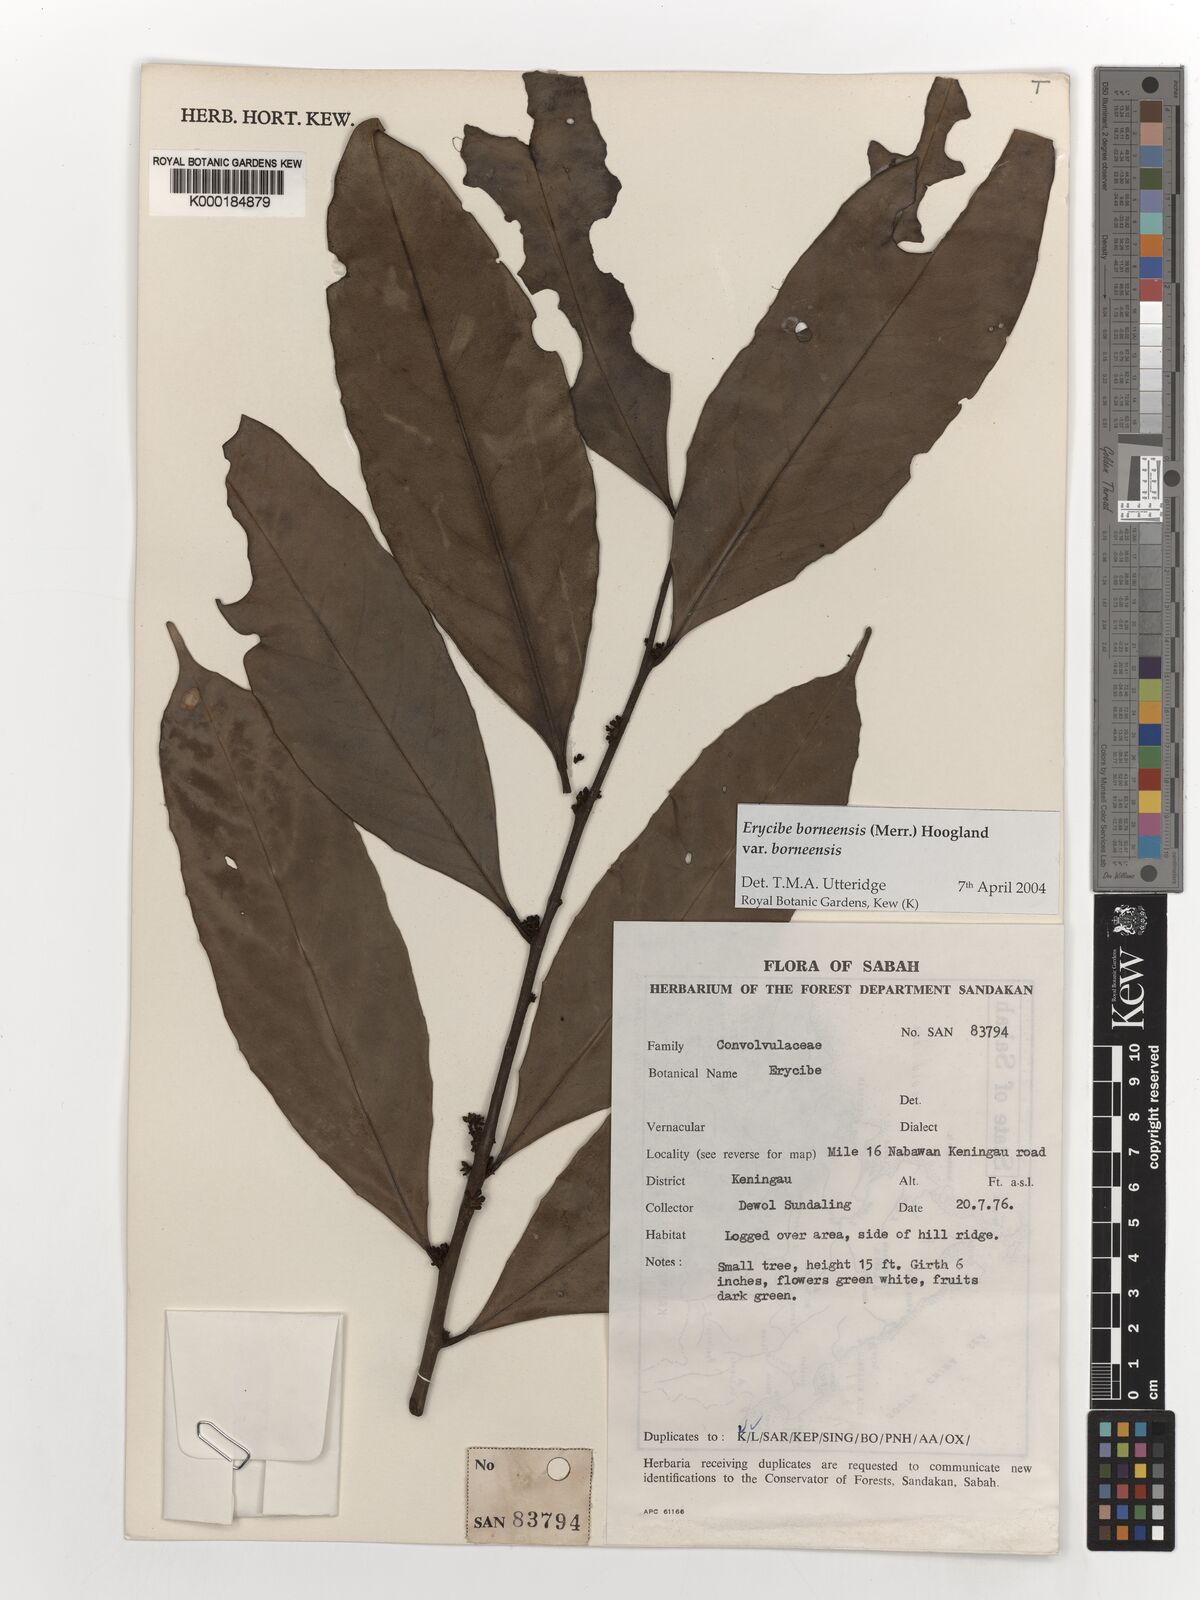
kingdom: Plantae
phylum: Tracheophyta
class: Magnoliopsida
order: Solanales
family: Convolvulaceae
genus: Erycibe
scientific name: Erycibe borneensis
